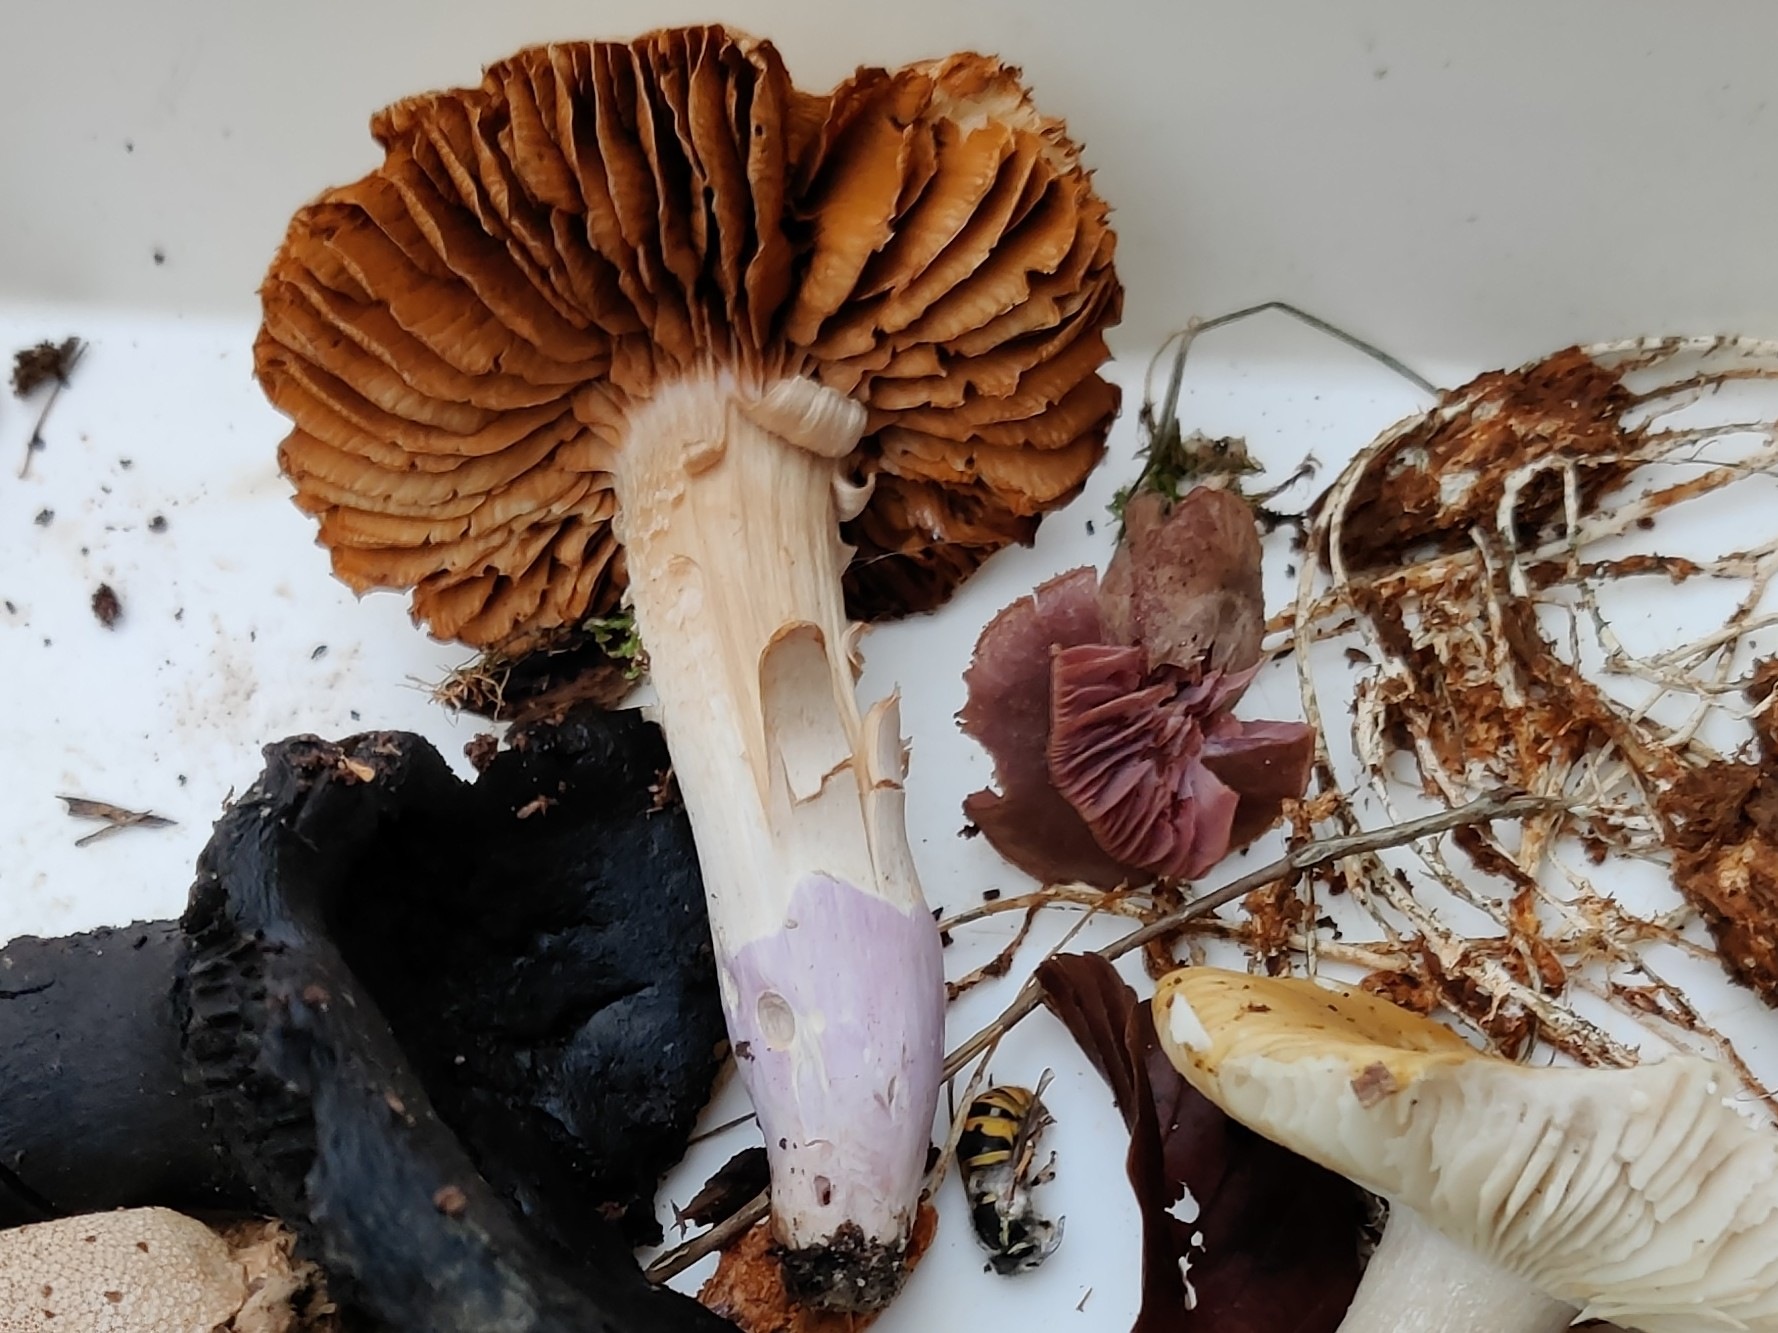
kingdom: Fungi
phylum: Basidiomycota
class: Agaricomycetes
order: Agaricales
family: Cortinariaceae
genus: Cortinarius
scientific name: Cortinarius elatior
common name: høj slørhat
